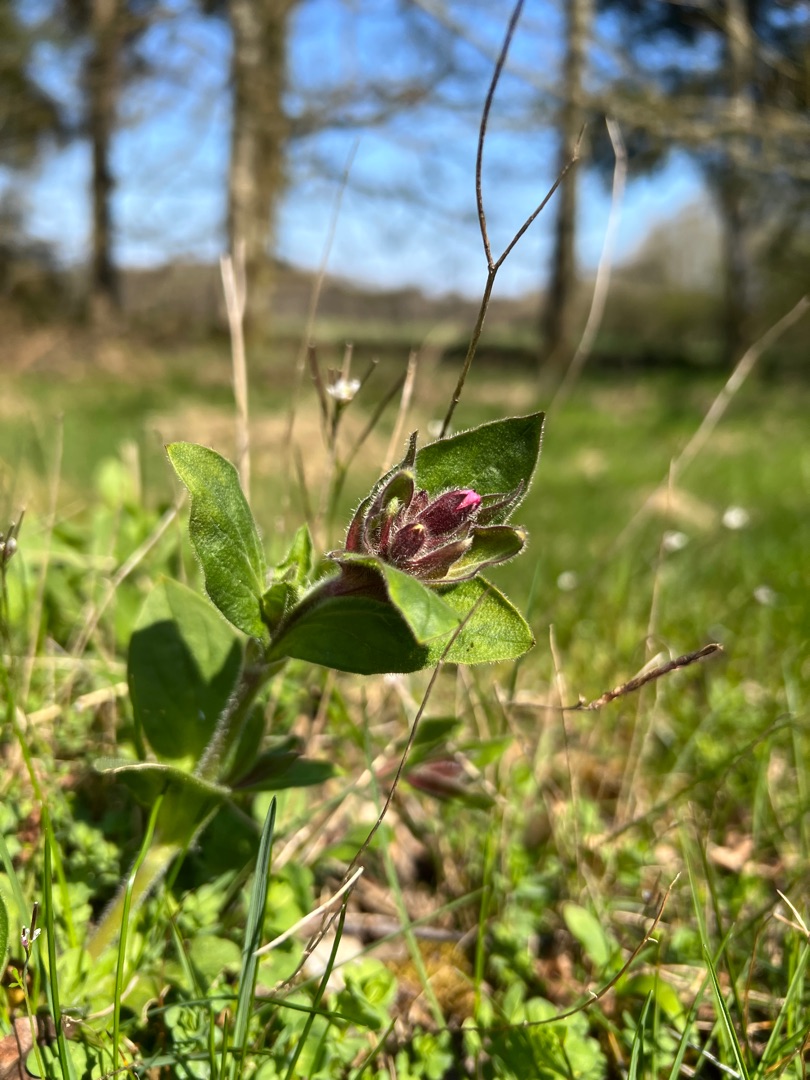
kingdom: Plantae
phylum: Tracheophyta
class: Magnoliopsida
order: Caryophyllales
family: Caryophyllaceae
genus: Silene
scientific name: Silene dioica
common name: Dagpragtstjerne
